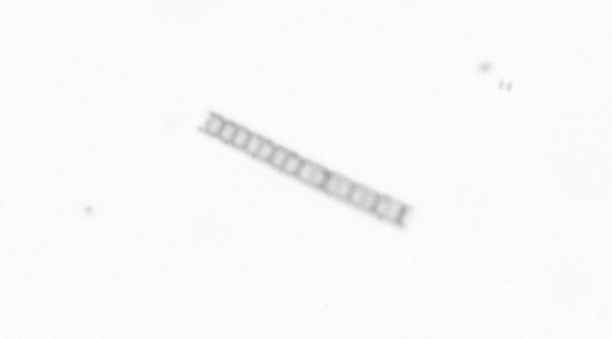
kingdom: Chromista
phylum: Ochrophyta
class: Bacillariophyceae
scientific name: Bacillariophyceae
